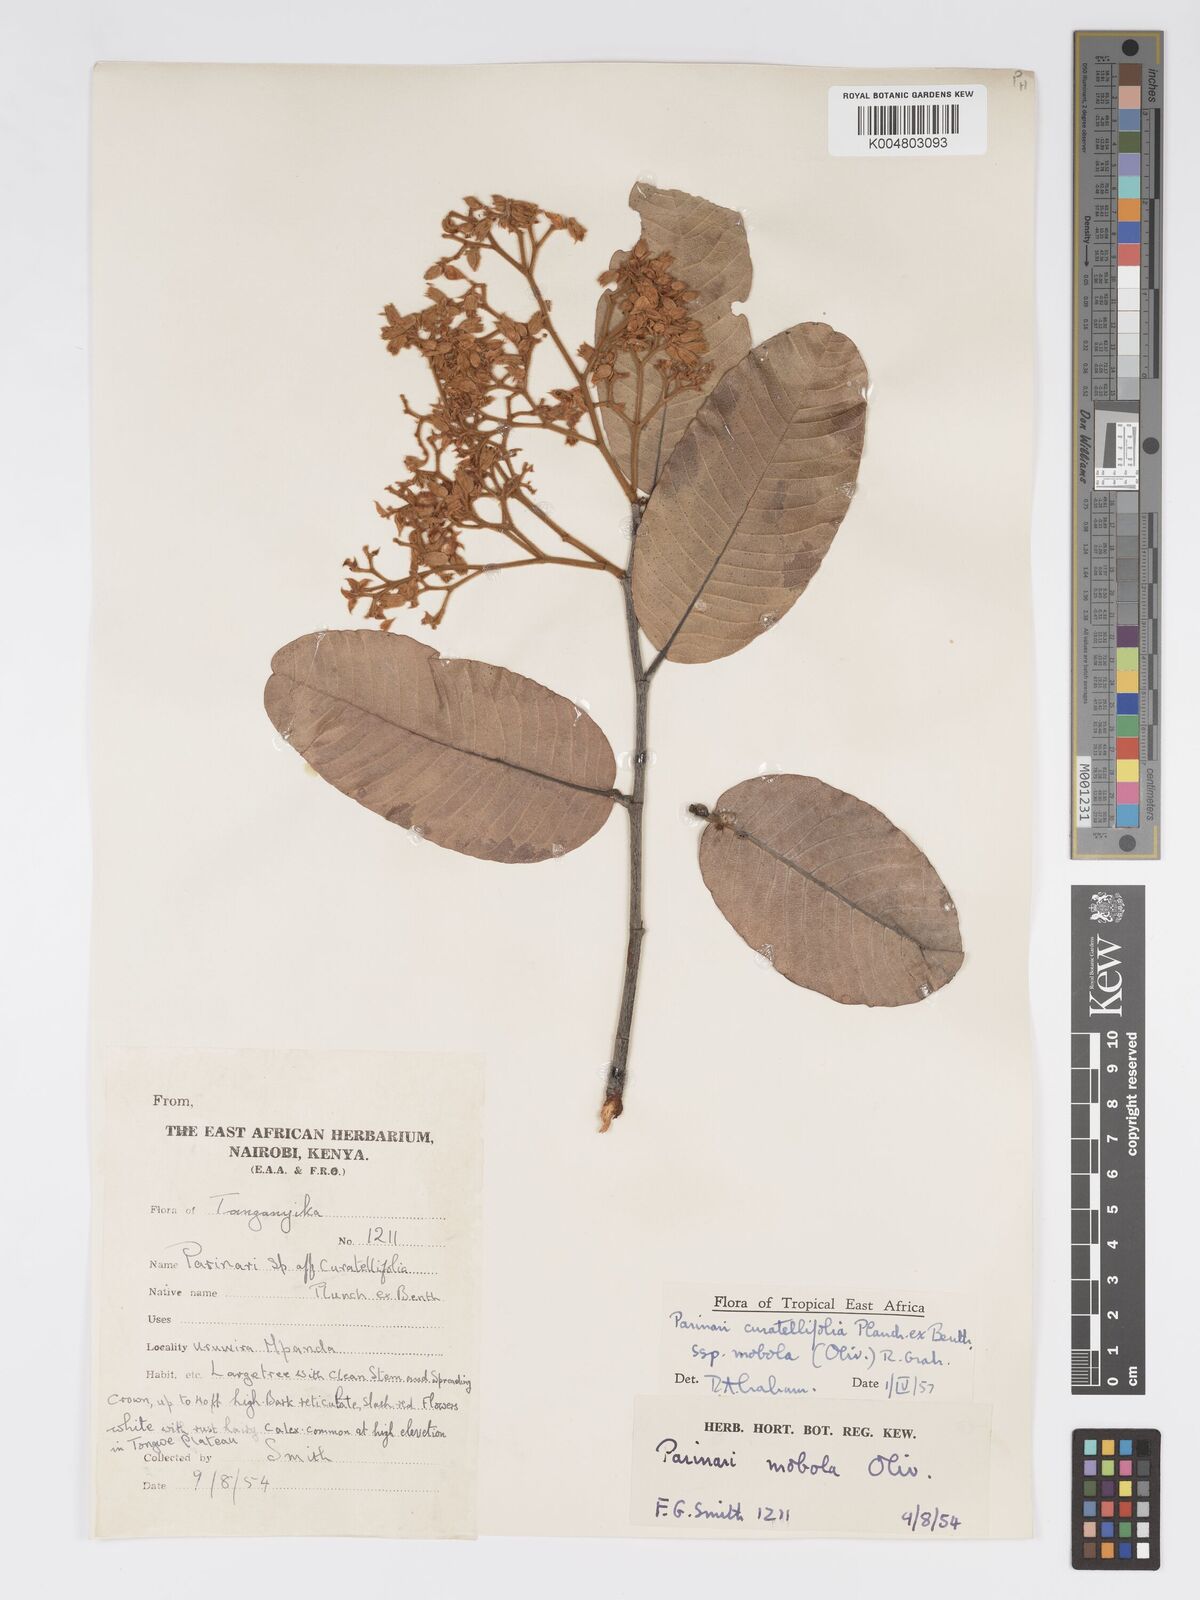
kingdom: Plantae
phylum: Tracheophyta
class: Magnoliopsida
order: Malpighiales
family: Chrysobalanaceae
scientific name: Chrysobalanaceae
